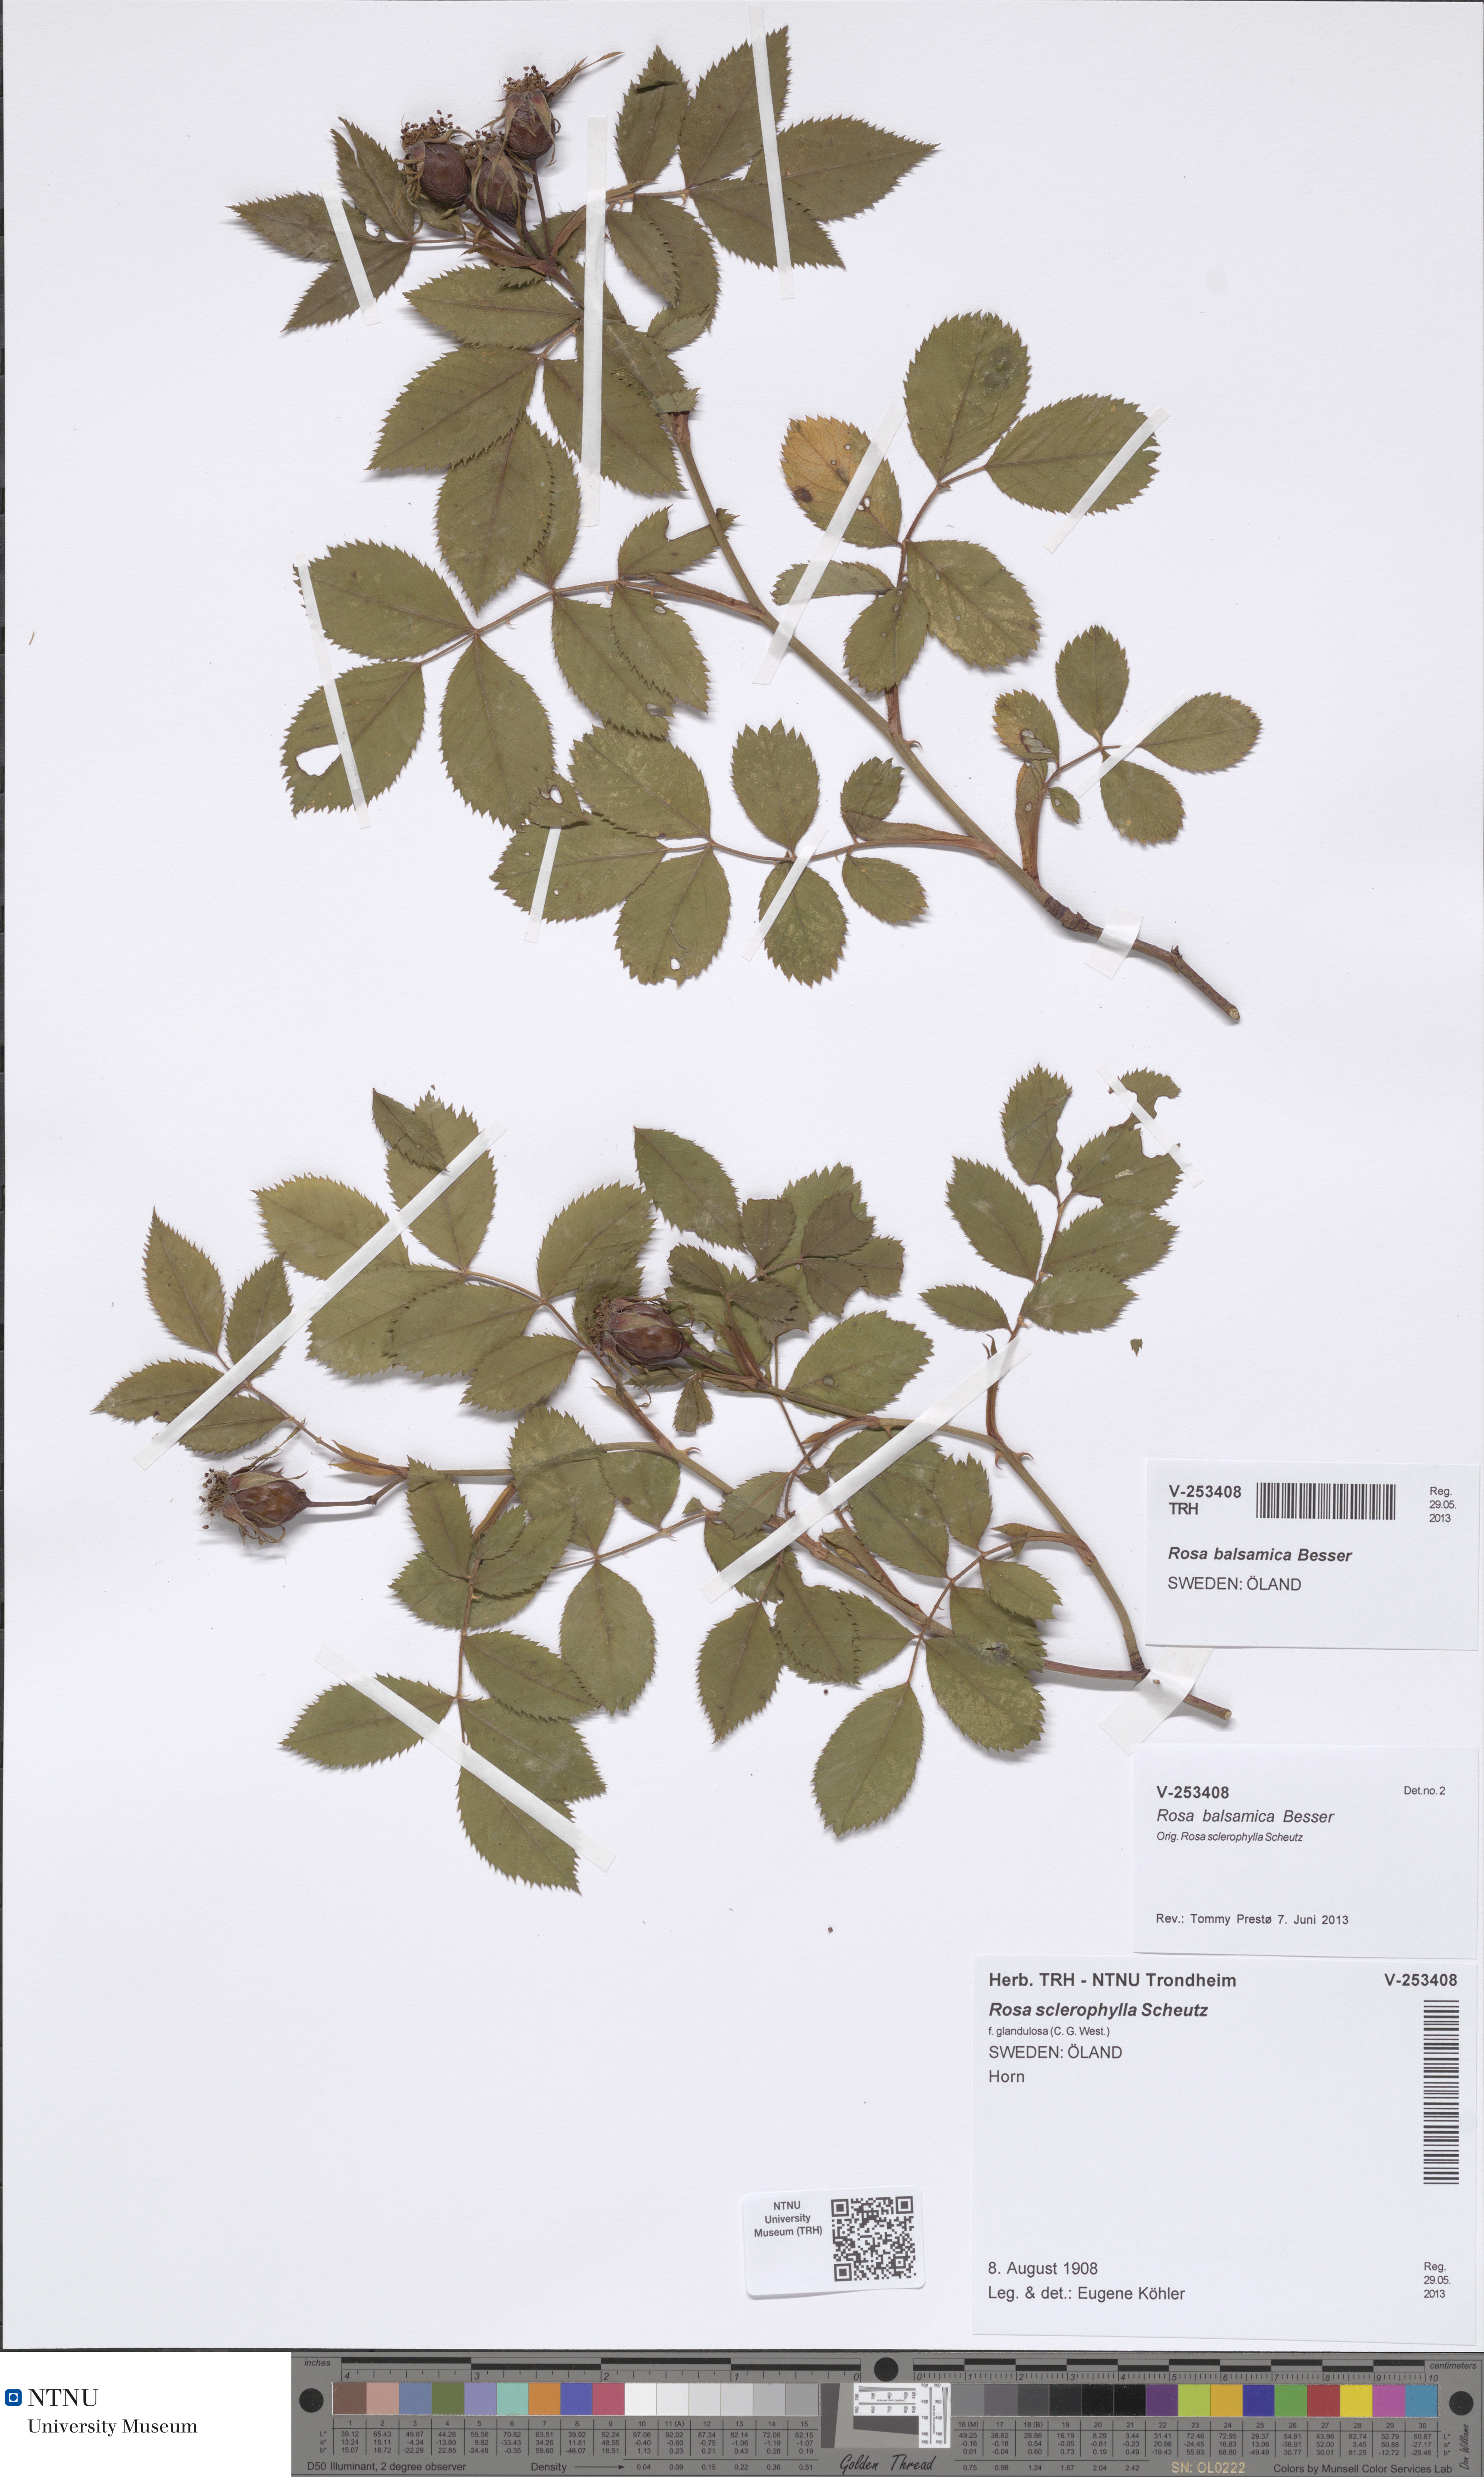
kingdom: Plantae
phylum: Tracheophyta
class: Magnoliopsida
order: Rosales
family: Rosaceae
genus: Rosa
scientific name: Rosa balsamica
